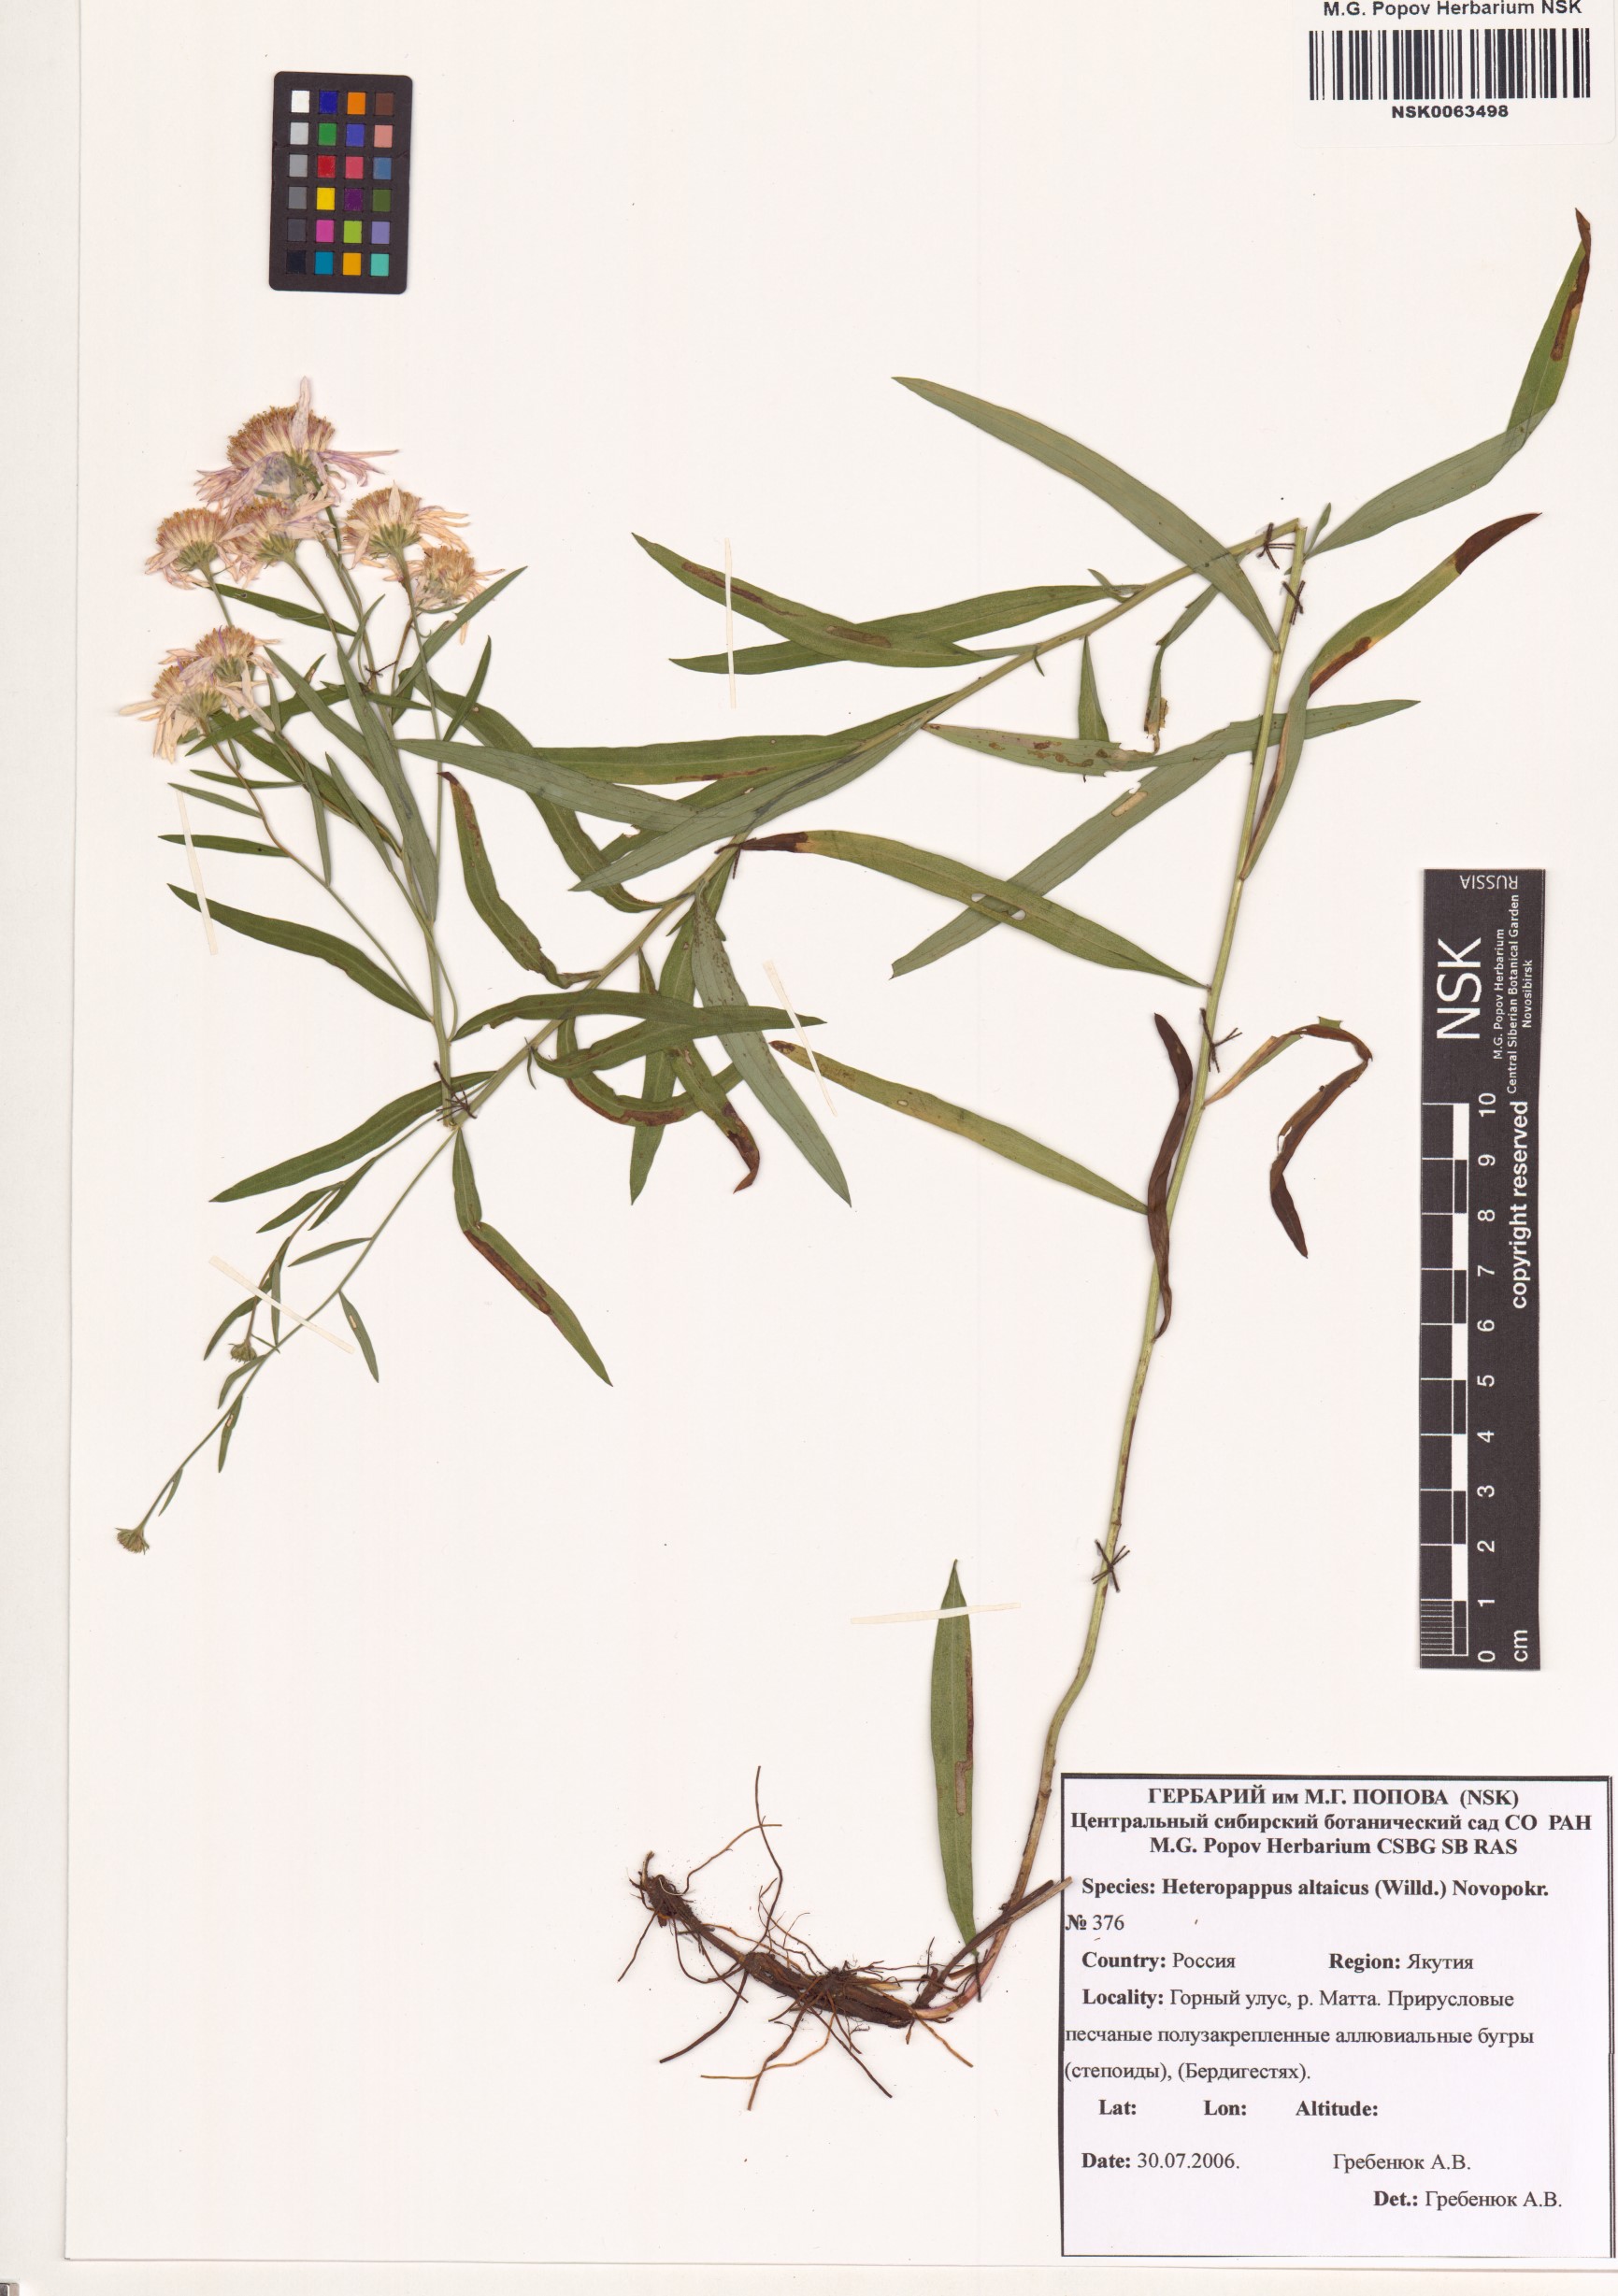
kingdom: Plantae
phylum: Tracheophyta
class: Magnoliopsida
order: Asterales
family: Asteraceae
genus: Heteropappus
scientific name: Heteropappus altaicus
